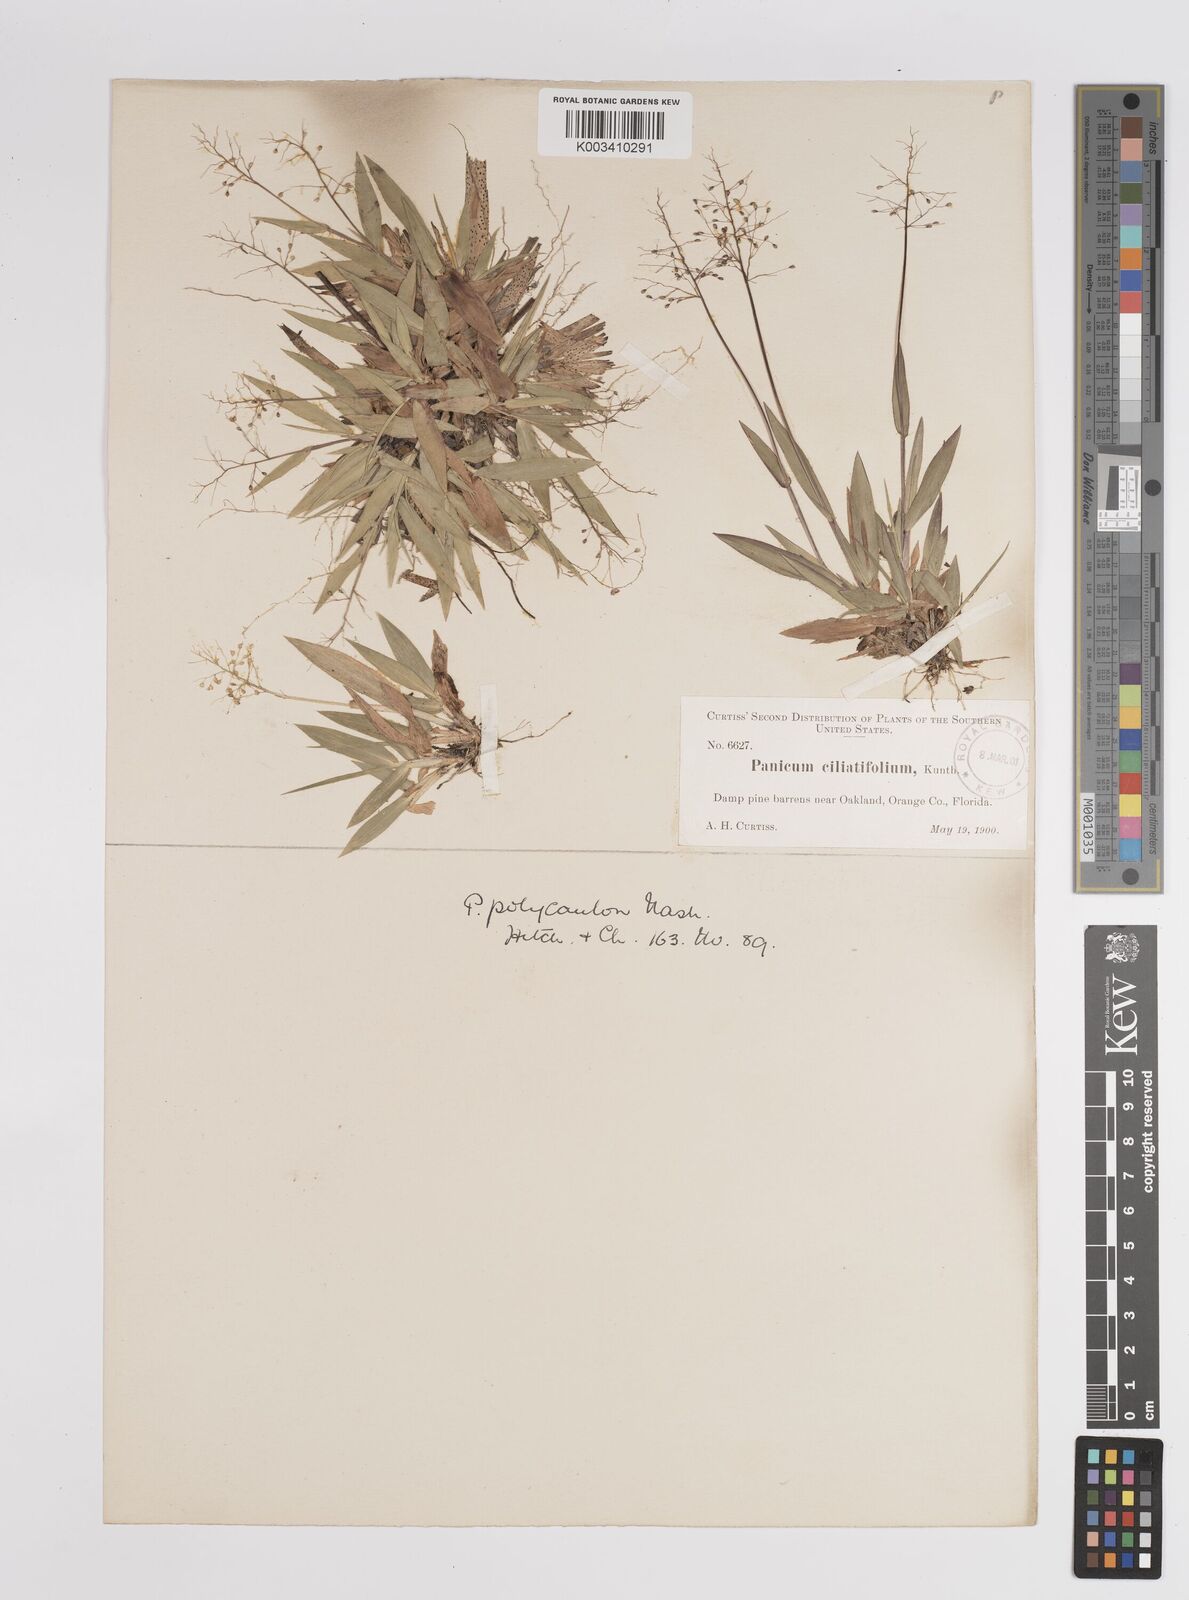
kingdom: Plantae
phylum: Tracheophyta
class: Liliopsida
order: Poales
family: Poaceae
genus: Dichanthelium
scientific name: Dichanthelium strigosum
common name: Cushion-tuft panic grass
